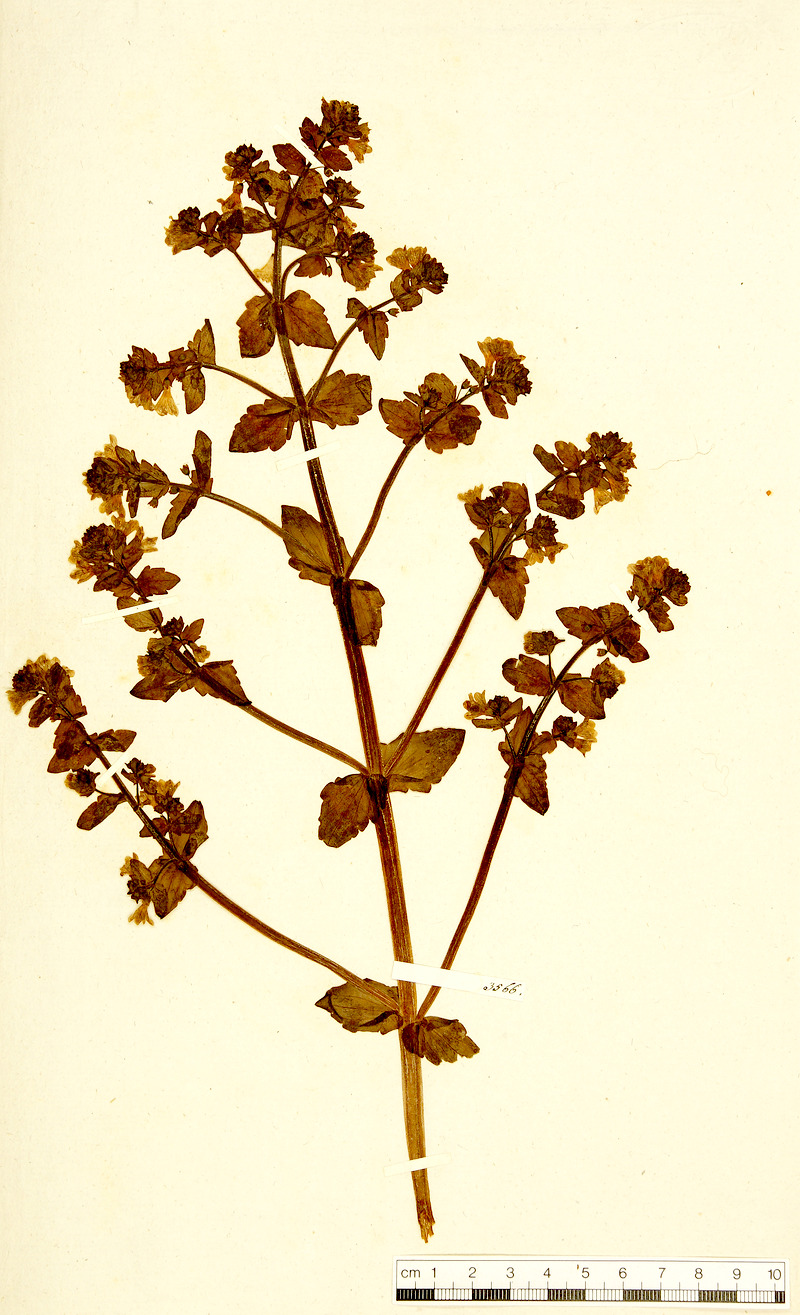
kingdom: Plantae
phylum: Tracheophyta
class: Magnoliopsida
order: Lamiales
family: Orobanchaceae
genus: Tozzia
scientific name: Tozzia alpina
